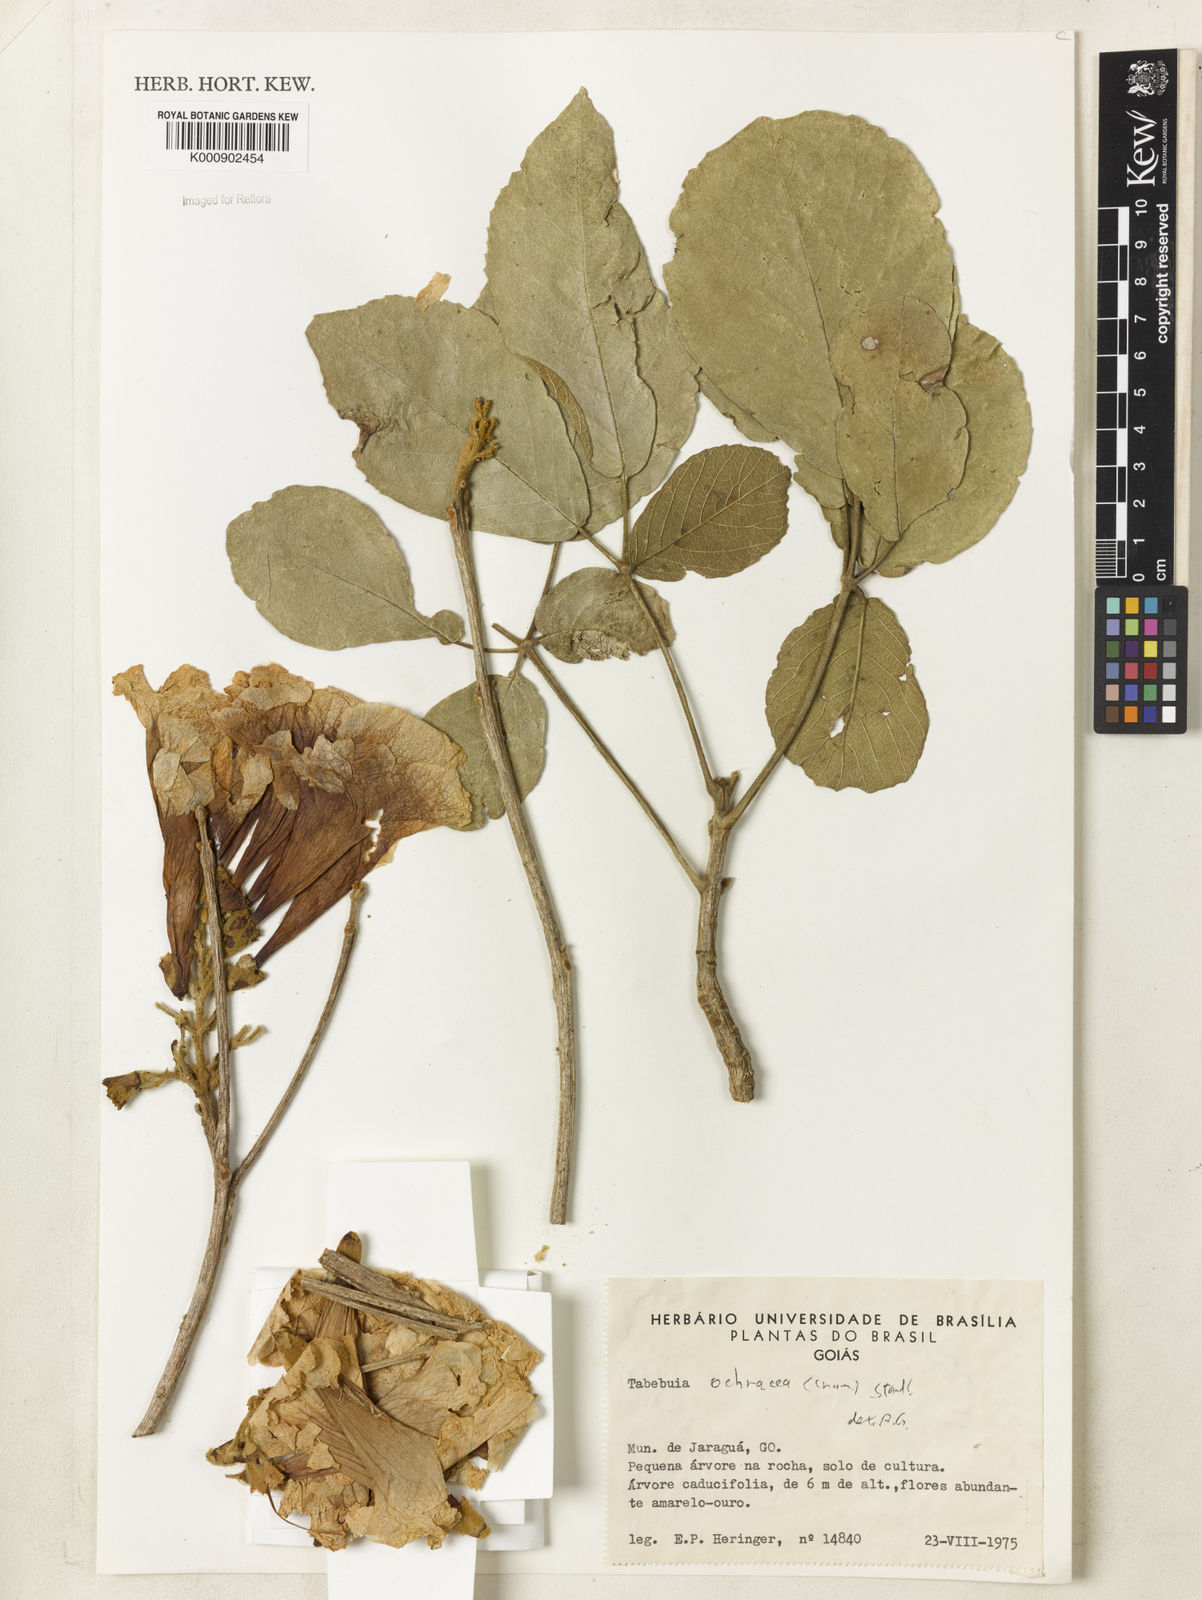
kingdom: Plantae
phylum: Tracheophyta
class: Magnoliopsida
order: Lamiales
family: Bignoniaceae
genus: Handroanthus
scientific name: Handroanthus ochraceus
